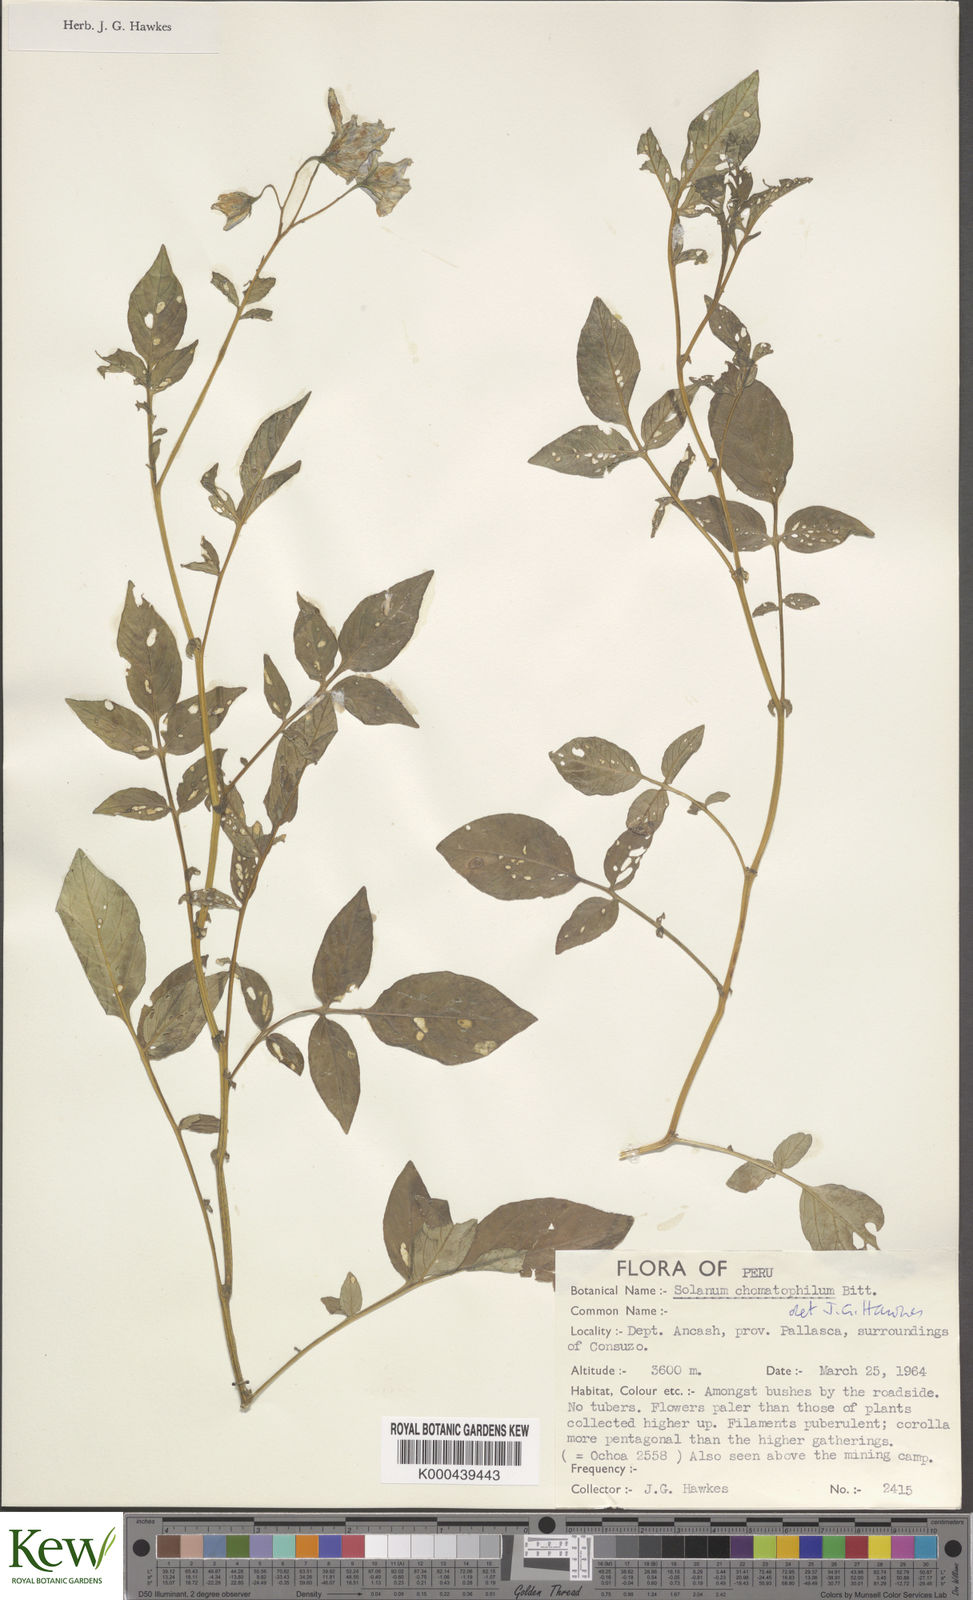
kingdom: Plantae
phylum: Tracheophyta
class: Magnoliopsida
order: Solanales
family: Solanaceae
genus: Solanum
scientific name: Solanum chomatophilum
